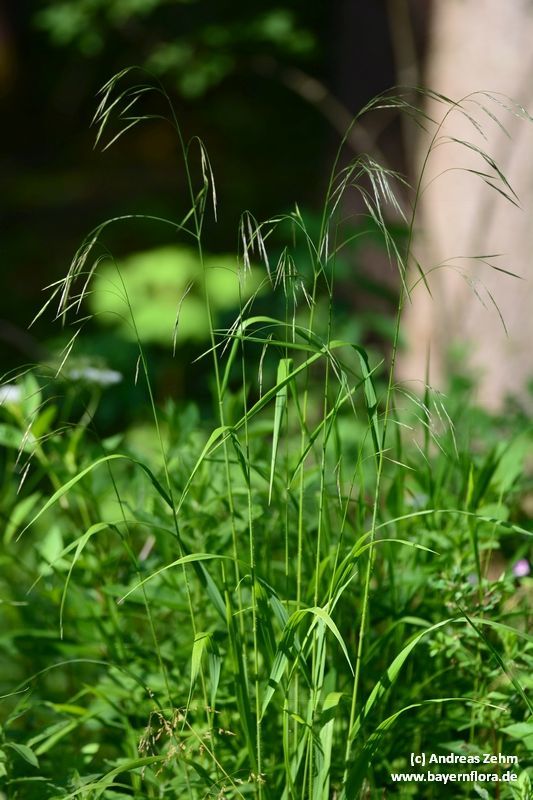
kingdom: Plantae
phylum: Tracheophyta
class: Liliopsida
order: Poales
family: Poaceae
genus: Bromus
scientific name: Bromus ramosus
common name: Hairy brome
